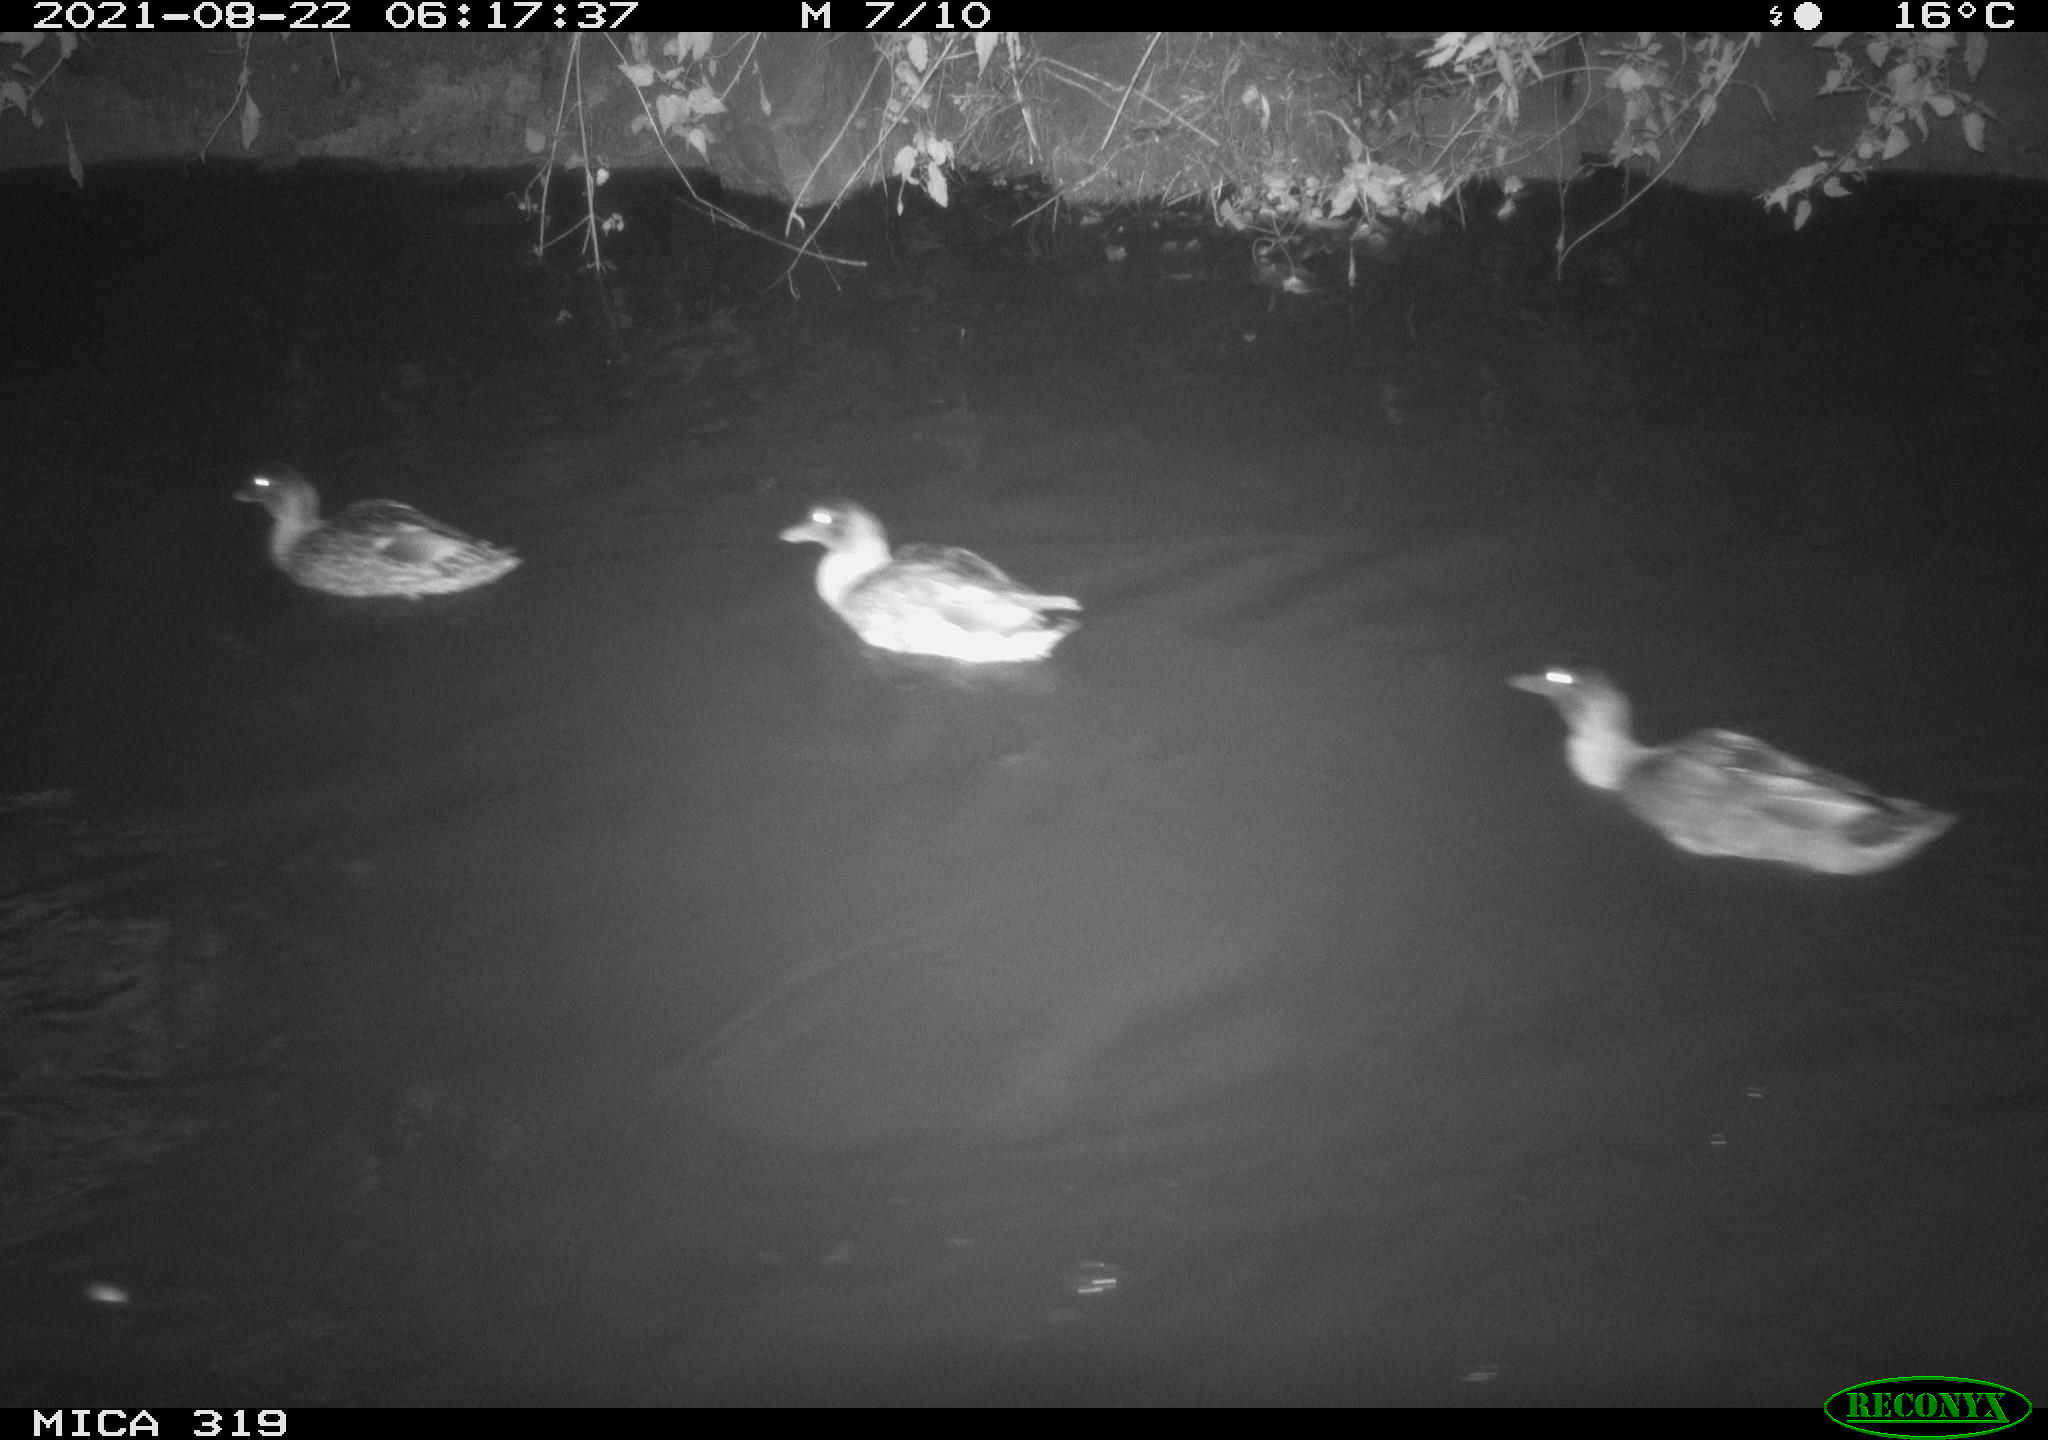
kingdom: Animalia
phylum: Chordata
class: Aves
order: Anseriformes
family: Anatidae
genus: Anas
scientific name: Anas platyrhynchos
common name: Mallard
